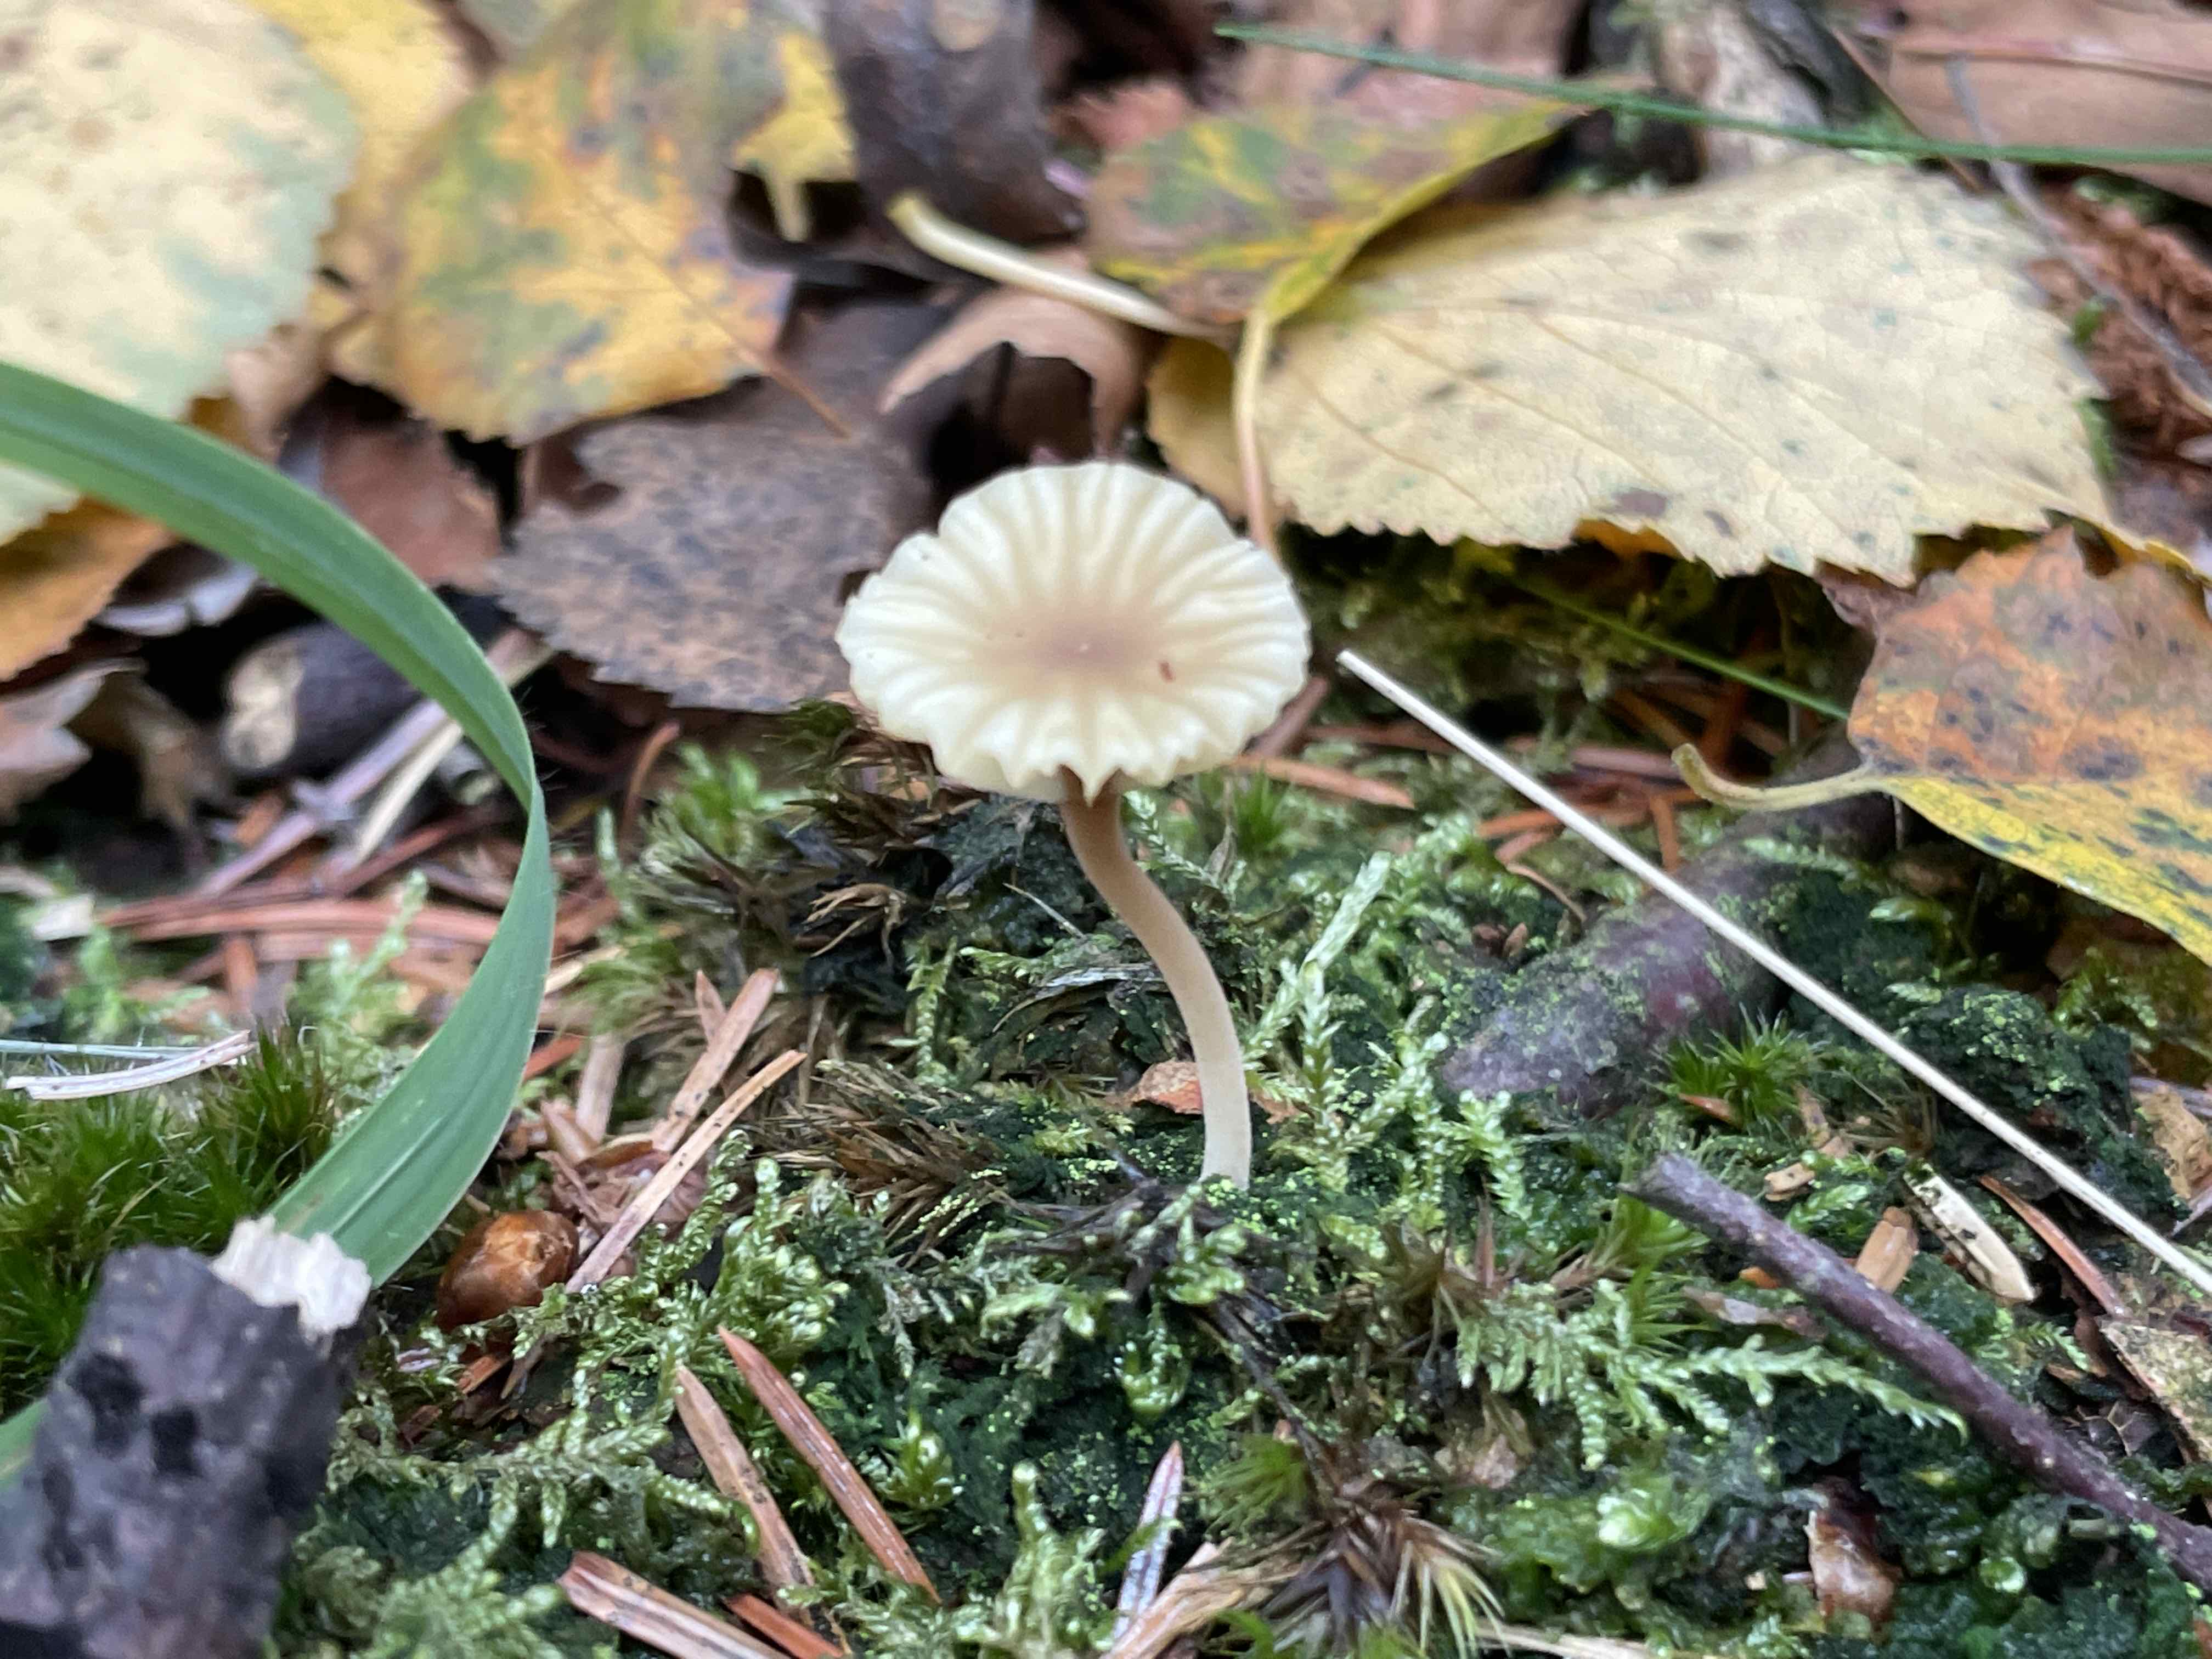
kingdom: Fungi
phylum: Basidiomycota
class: Agaricomycetes
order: Agaricales
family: Hygrophoraceae
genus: Lichenomphalia
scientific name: Lichenomphalia umbellifera
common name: tørve-lavhat
